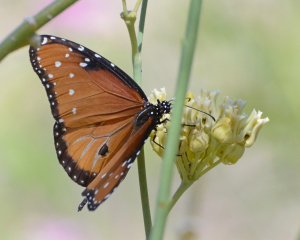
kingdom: Animalia
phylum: Arthropoda
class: Insecta
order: Lepidoptera
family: Nymphalidae
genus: Danaus
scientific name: Danaus gilippus
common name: Queen
